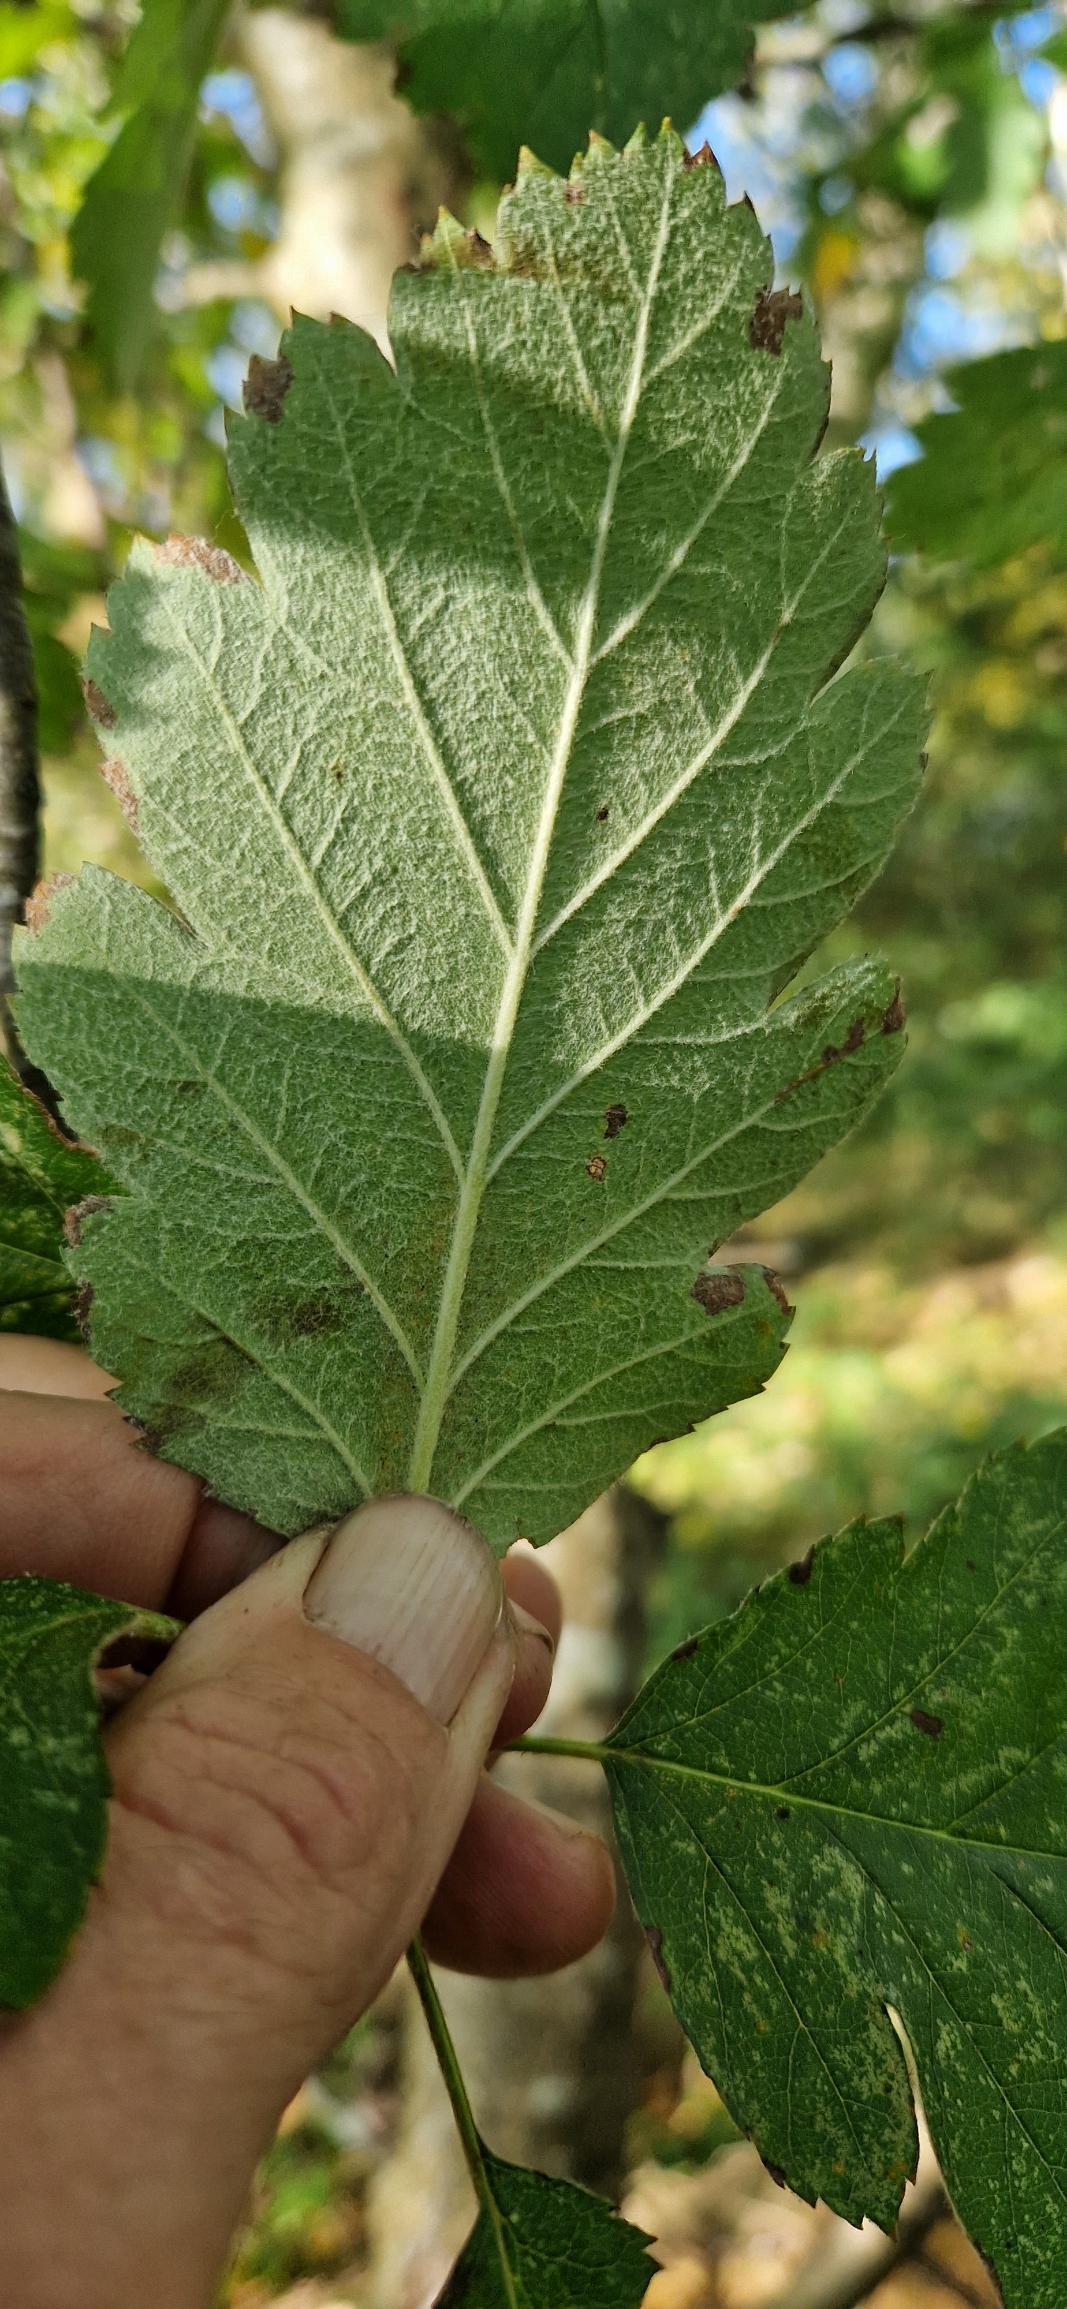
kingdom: Plantae
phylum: Tracheophyta
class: Magnoliopsida
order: Rosales
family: Rosaceae
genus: Scandosorbus
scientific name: Scandosorbus intermedia
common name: Selje-røn
